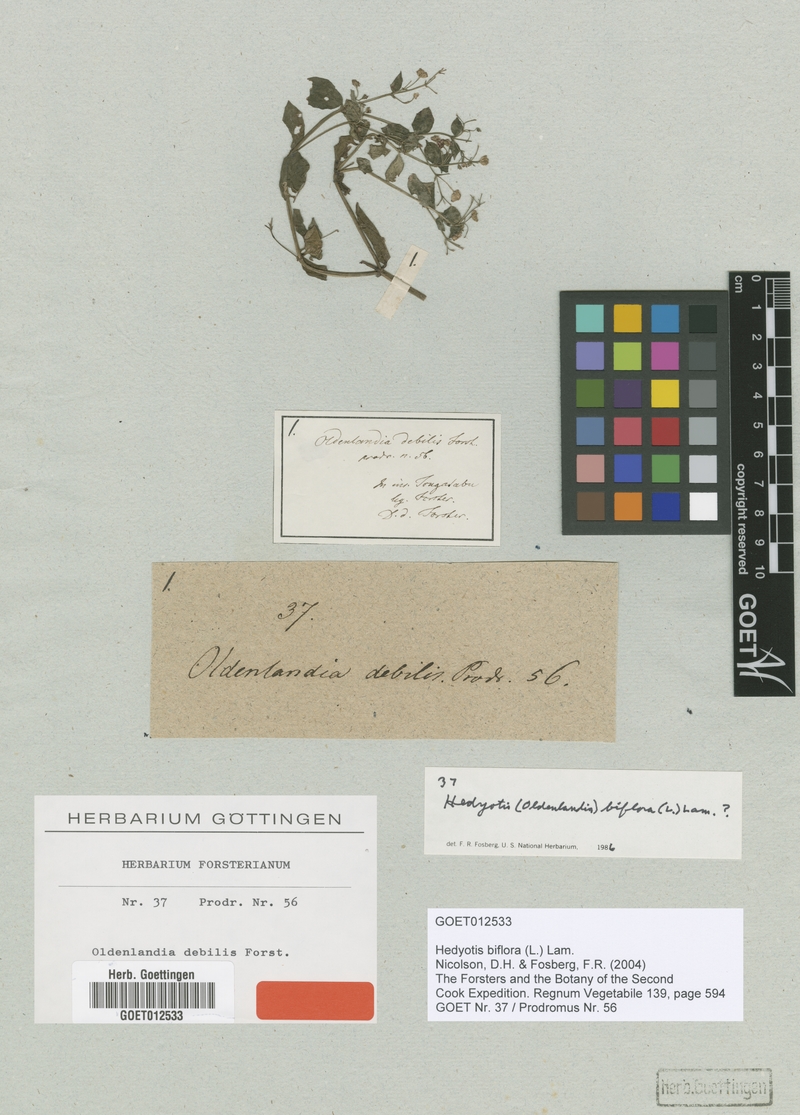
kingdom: Plantae
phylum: Tracheophyta
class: Magnoliopsida
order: Gentianales
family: Rubiaceae
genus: Leptopetalum
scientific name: Leptopetalum biflorum
